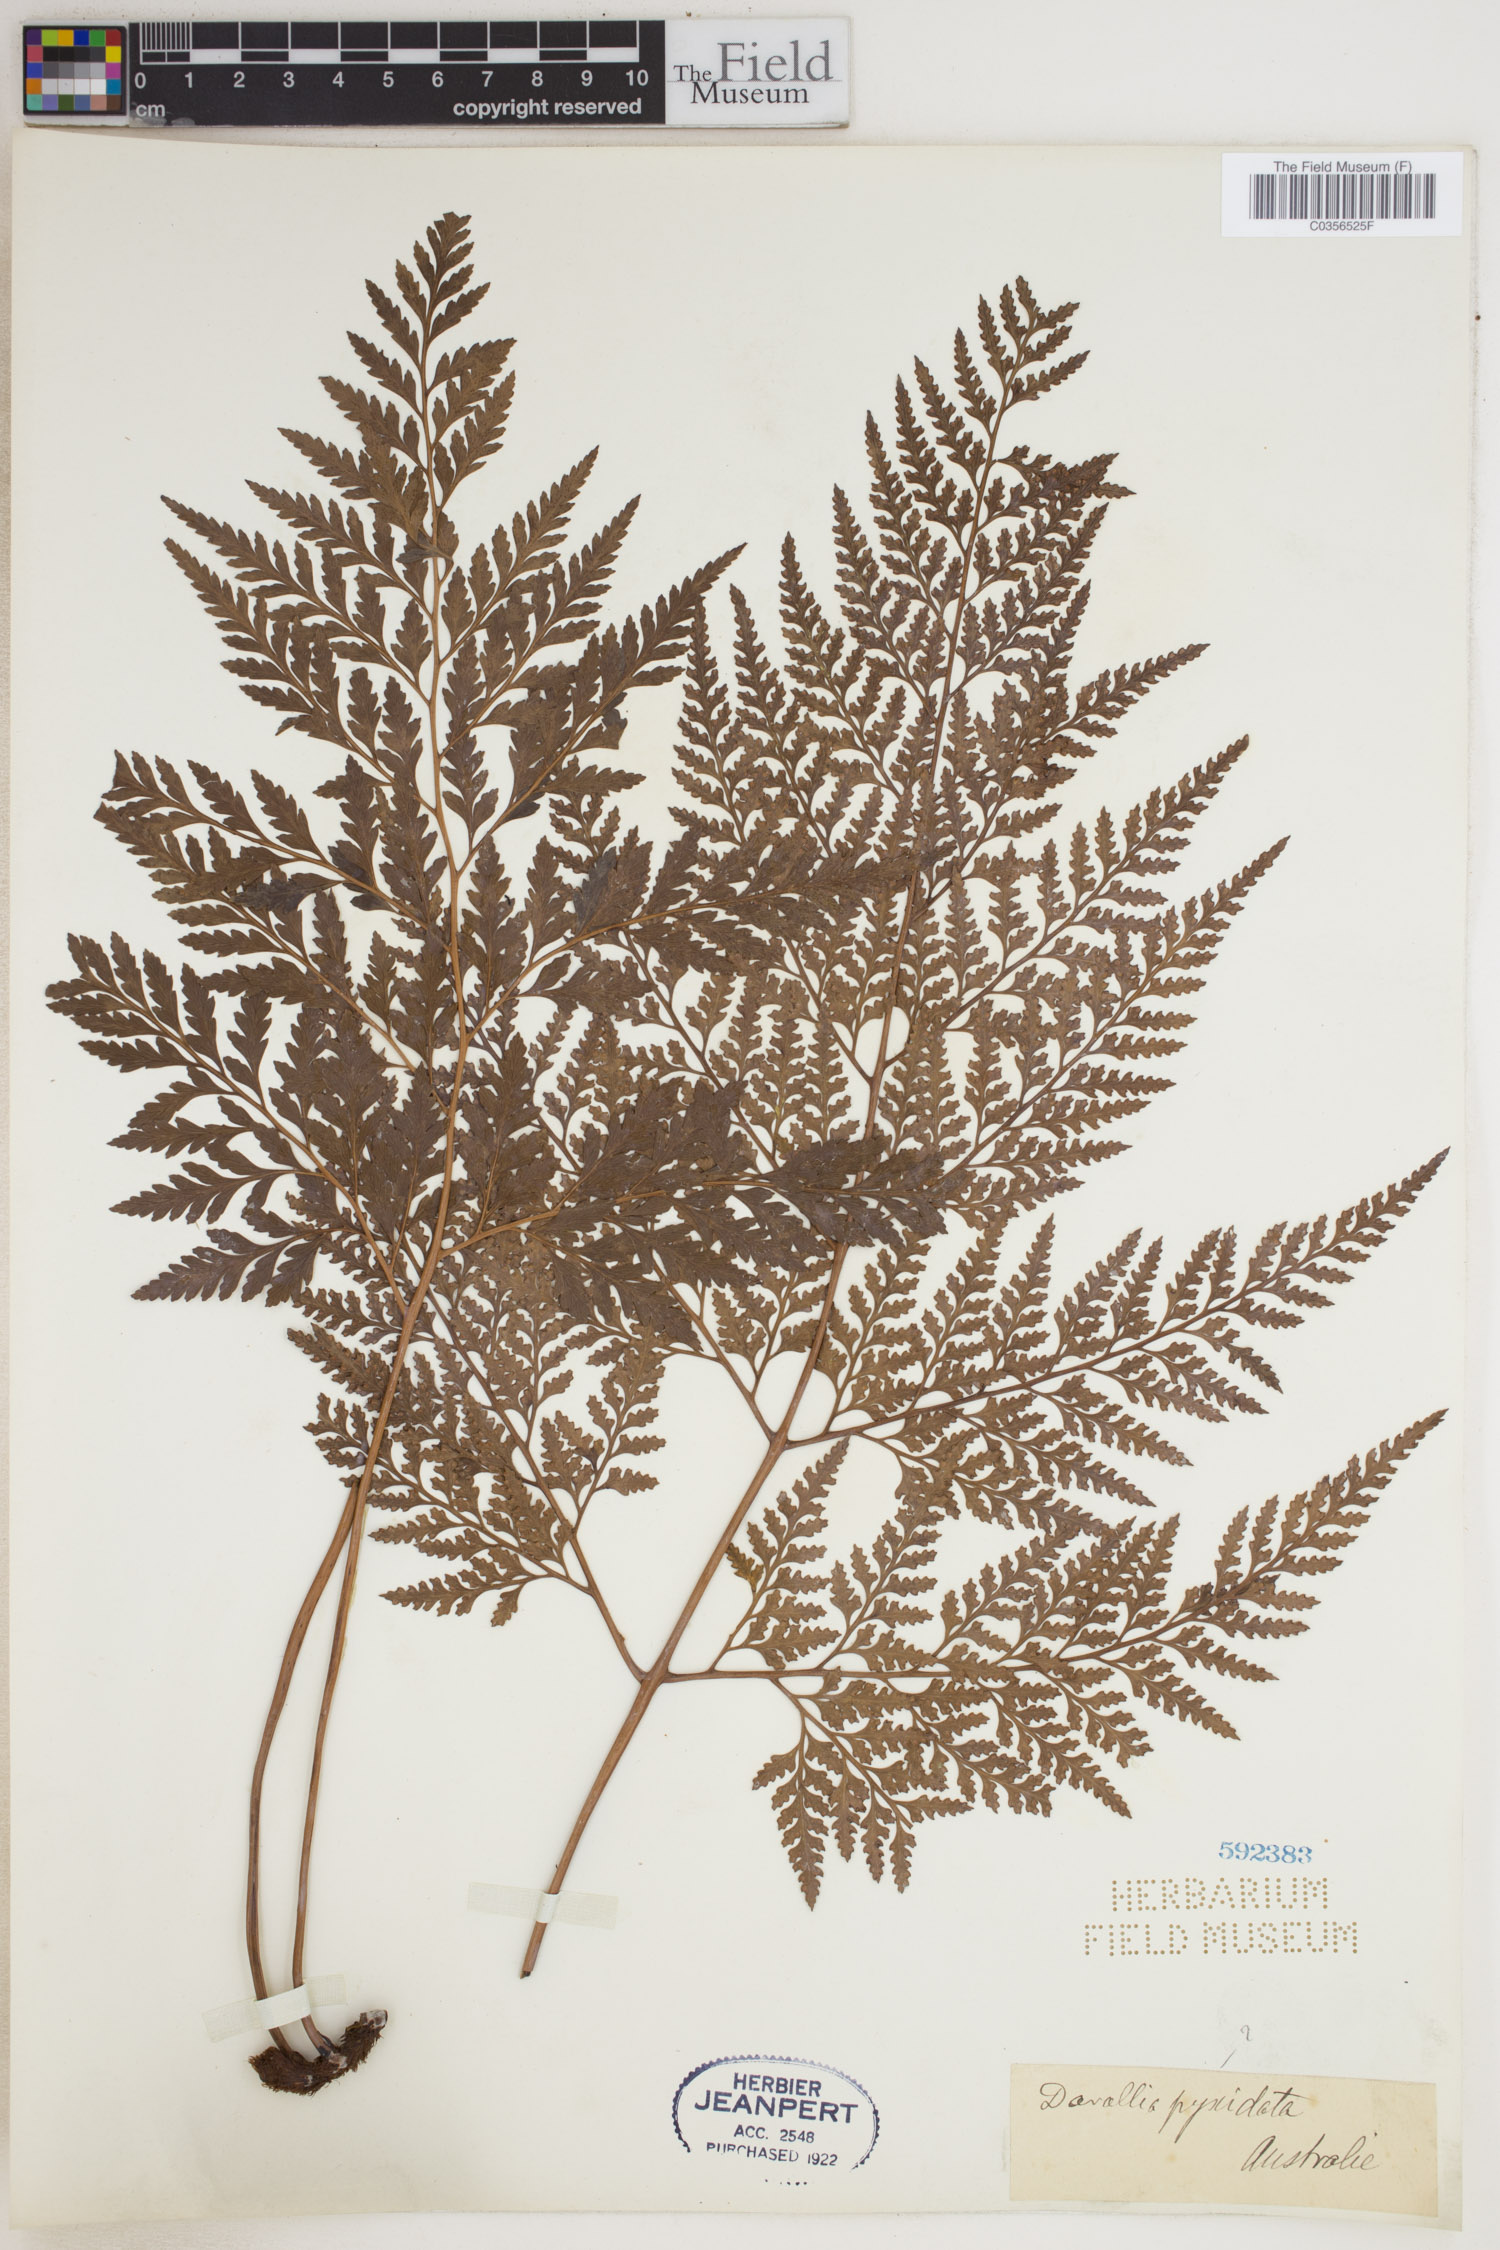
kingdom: Plantae
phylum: Tracheophyta
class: Polypodiopsida
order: Polypodiales
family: Davalliaceae
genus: Davallia
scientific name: Davallia pyxidata
